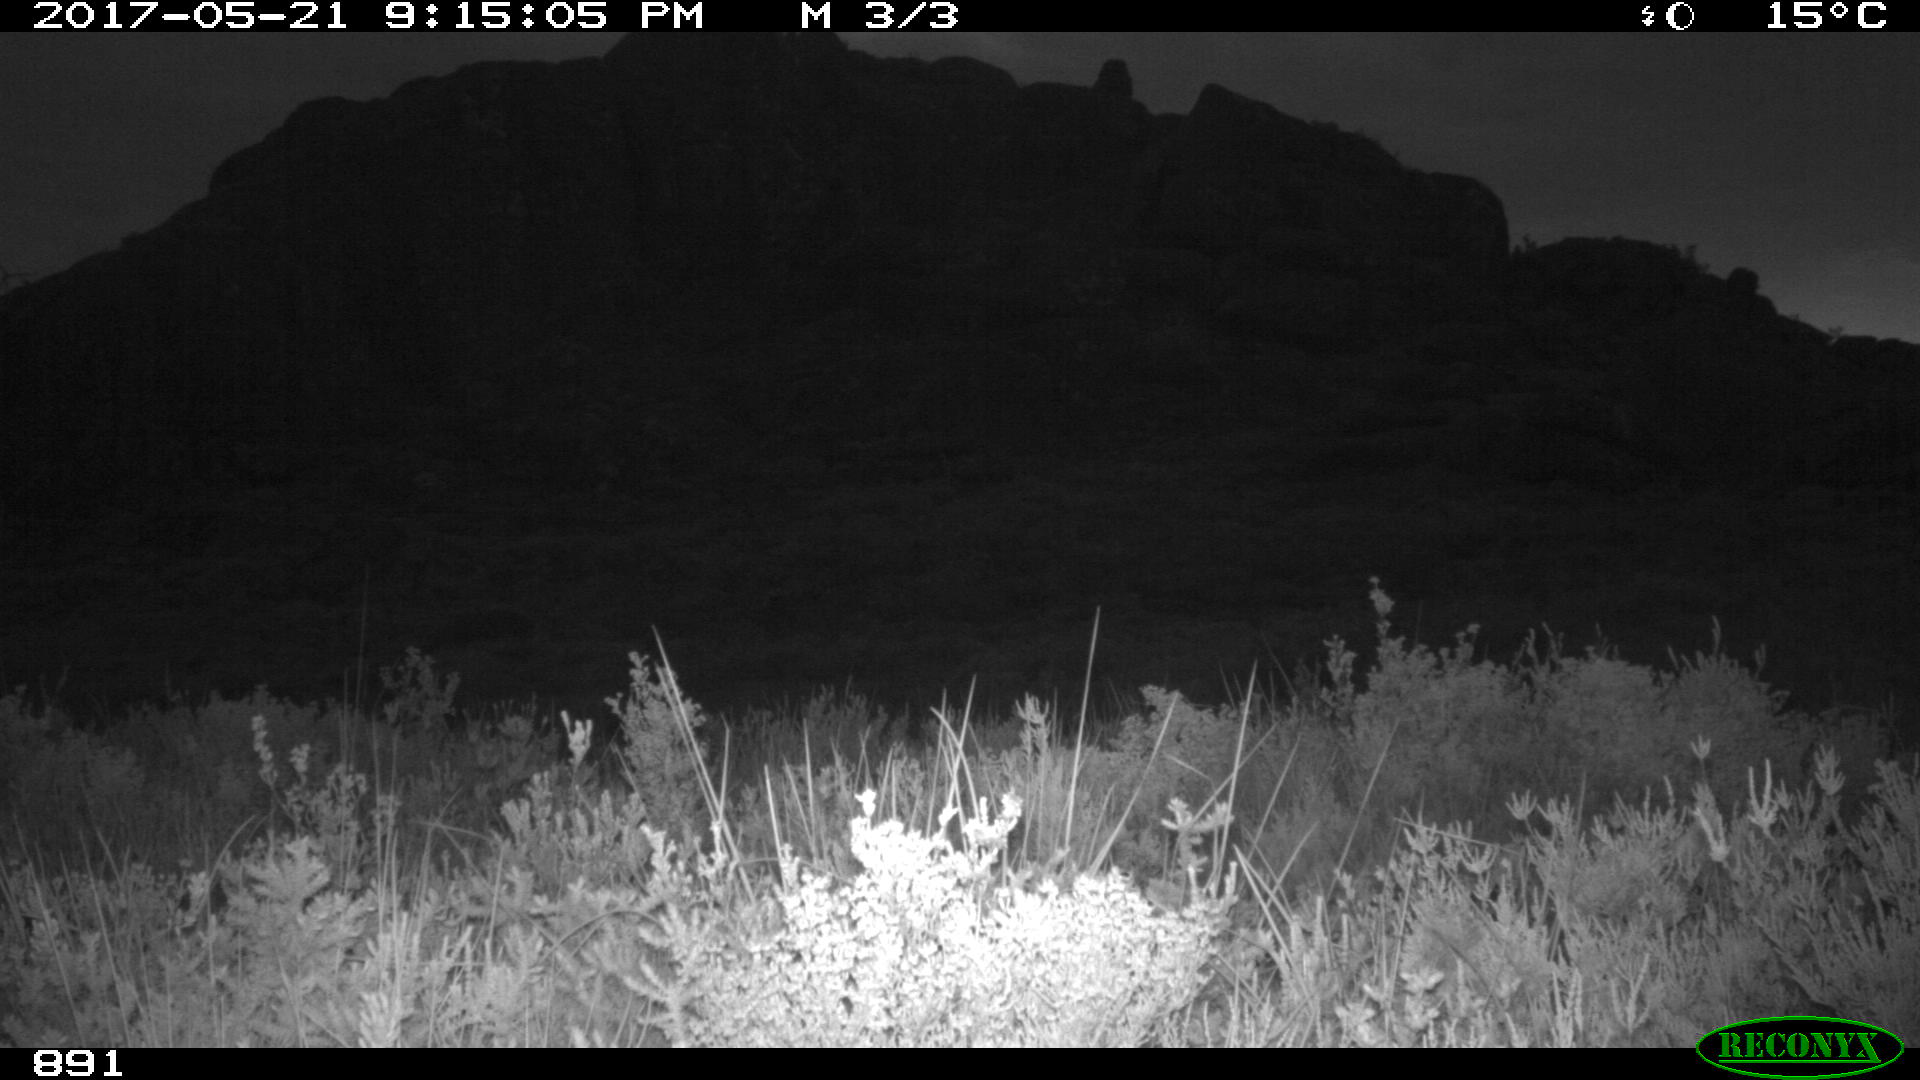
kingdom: Animalia
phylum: Chordata
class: Mammalia
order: Perissodactyla
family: Equidae
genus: Equus
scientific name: Equus caballus
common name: Horse
